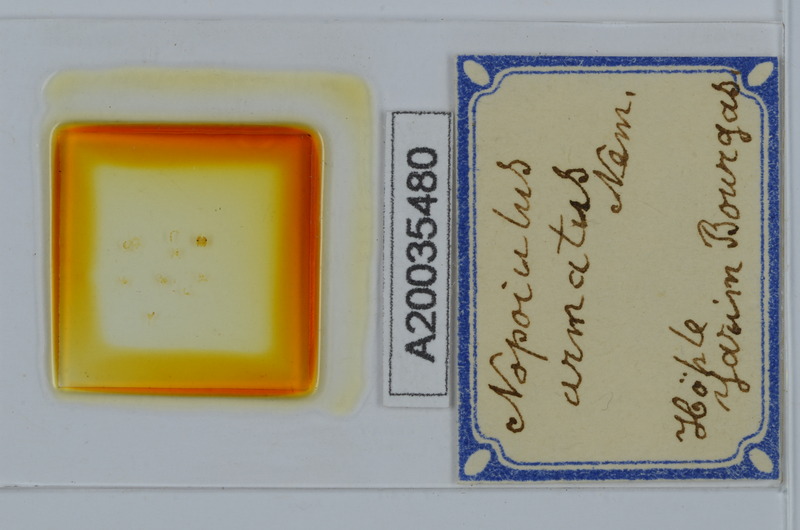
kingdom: Animalia
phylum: Arthropoda
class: Diplopoda
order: Julida
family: Blaniulidae
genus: Nopoiulus
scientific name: Nopoiulus kochii
